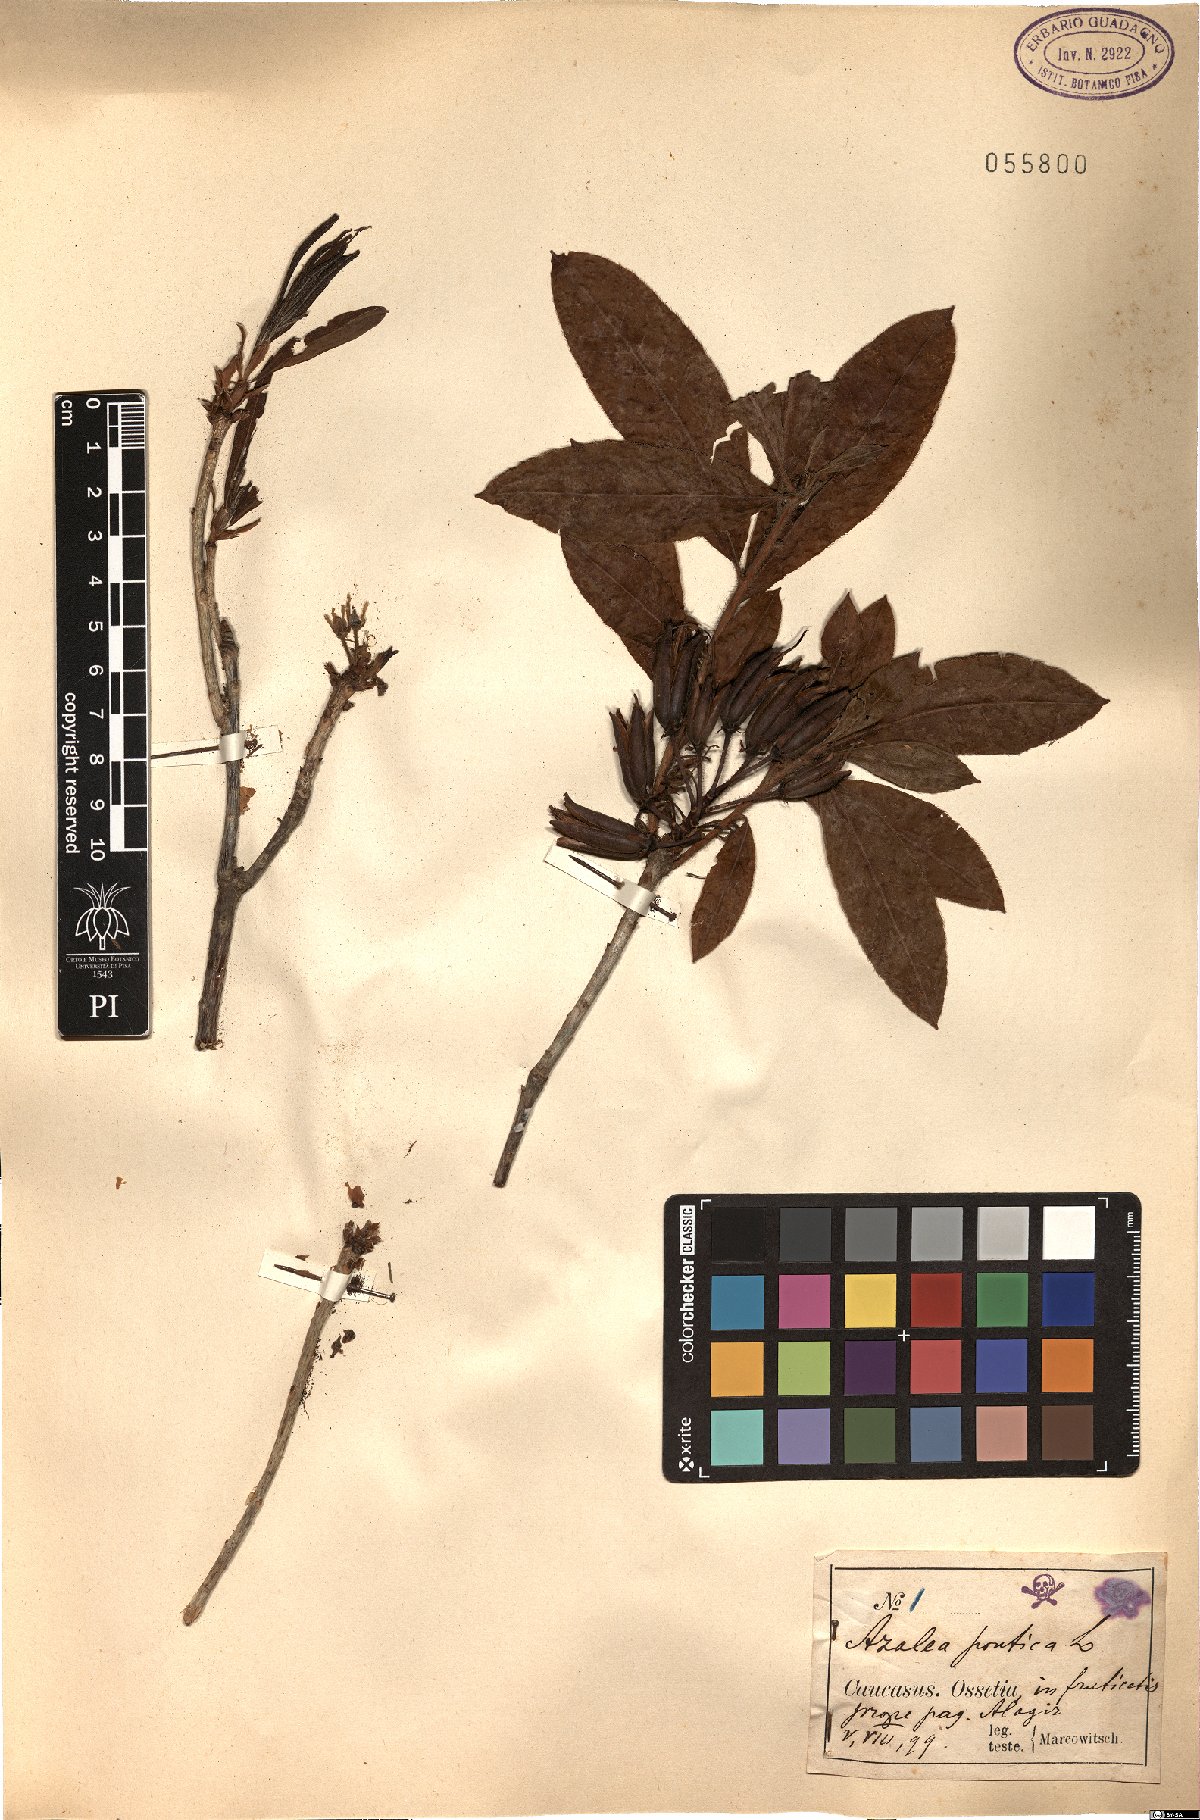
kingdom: Plantae
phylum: Tracheophyta
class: Magnoliopsida
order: Ericales
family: Ericaceae
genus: Rhododendron
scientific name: Rhododendron ponticum
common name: Rhododendron
